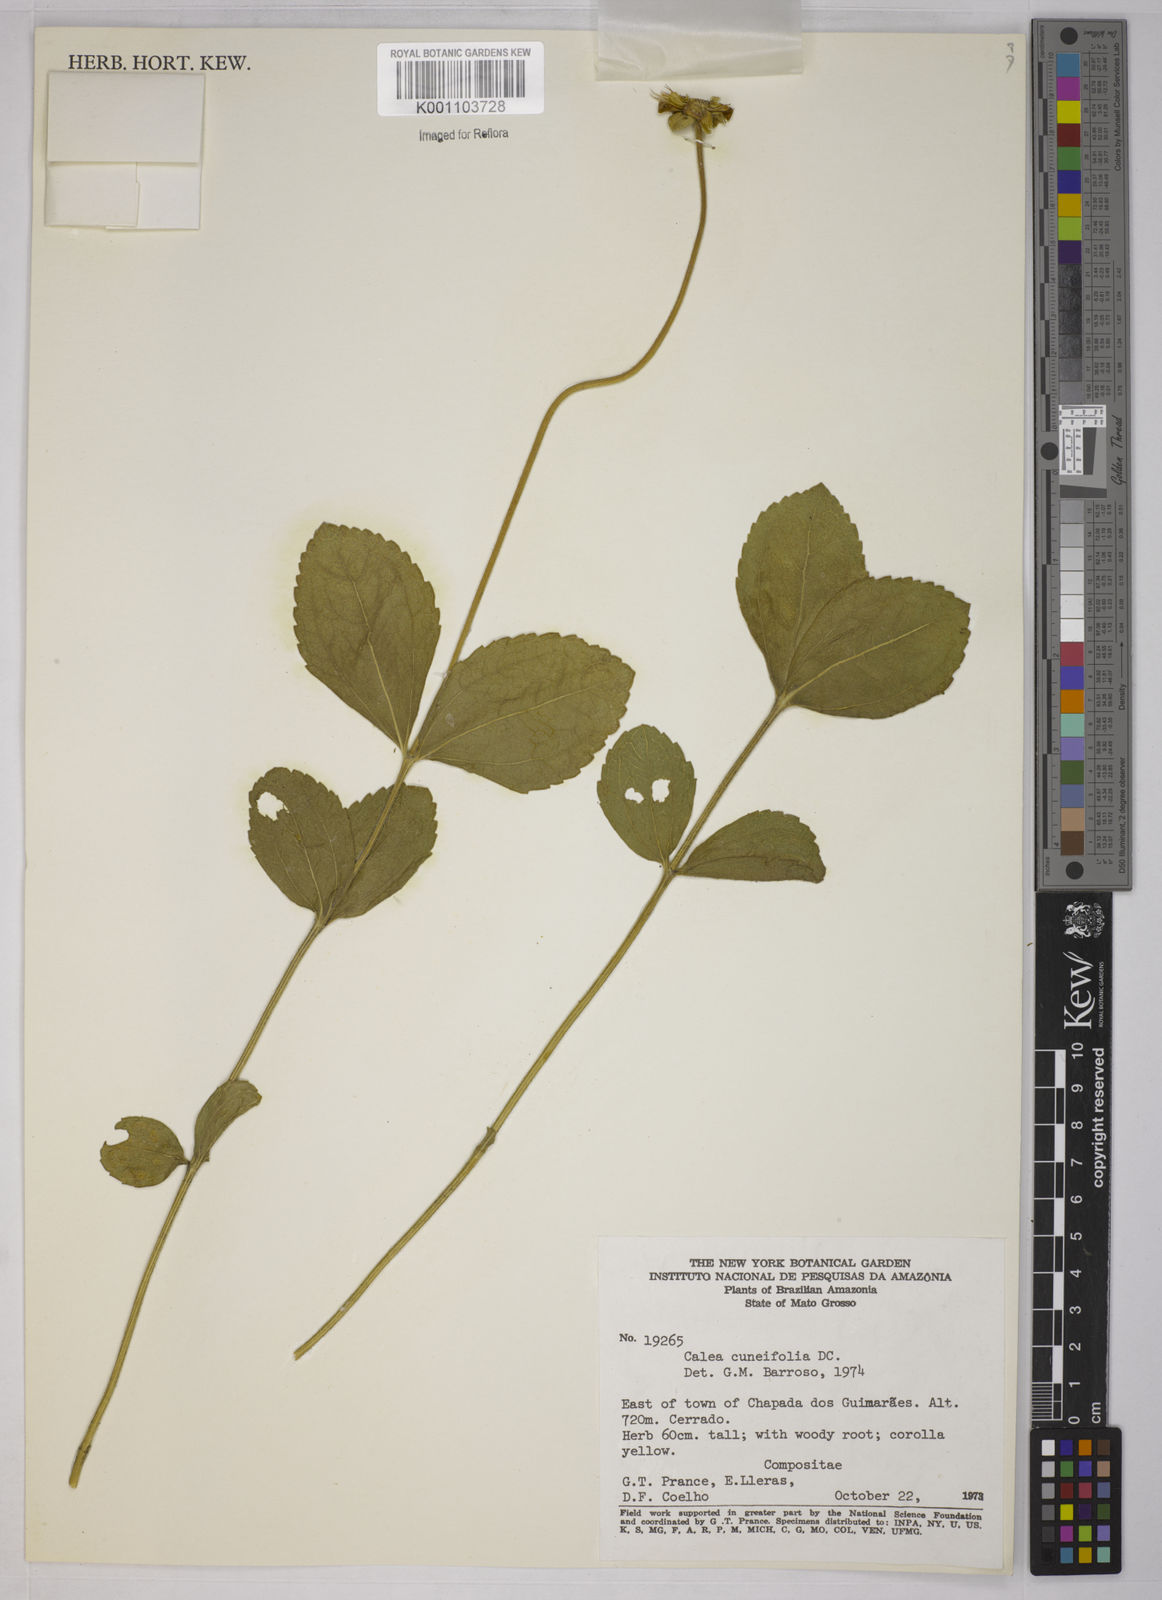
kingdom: Plantae
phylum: Tracheophyta
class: Magnoliopsida
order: Asterales
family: Asteraceae
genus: Calea
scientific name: Calea cuneifolia
